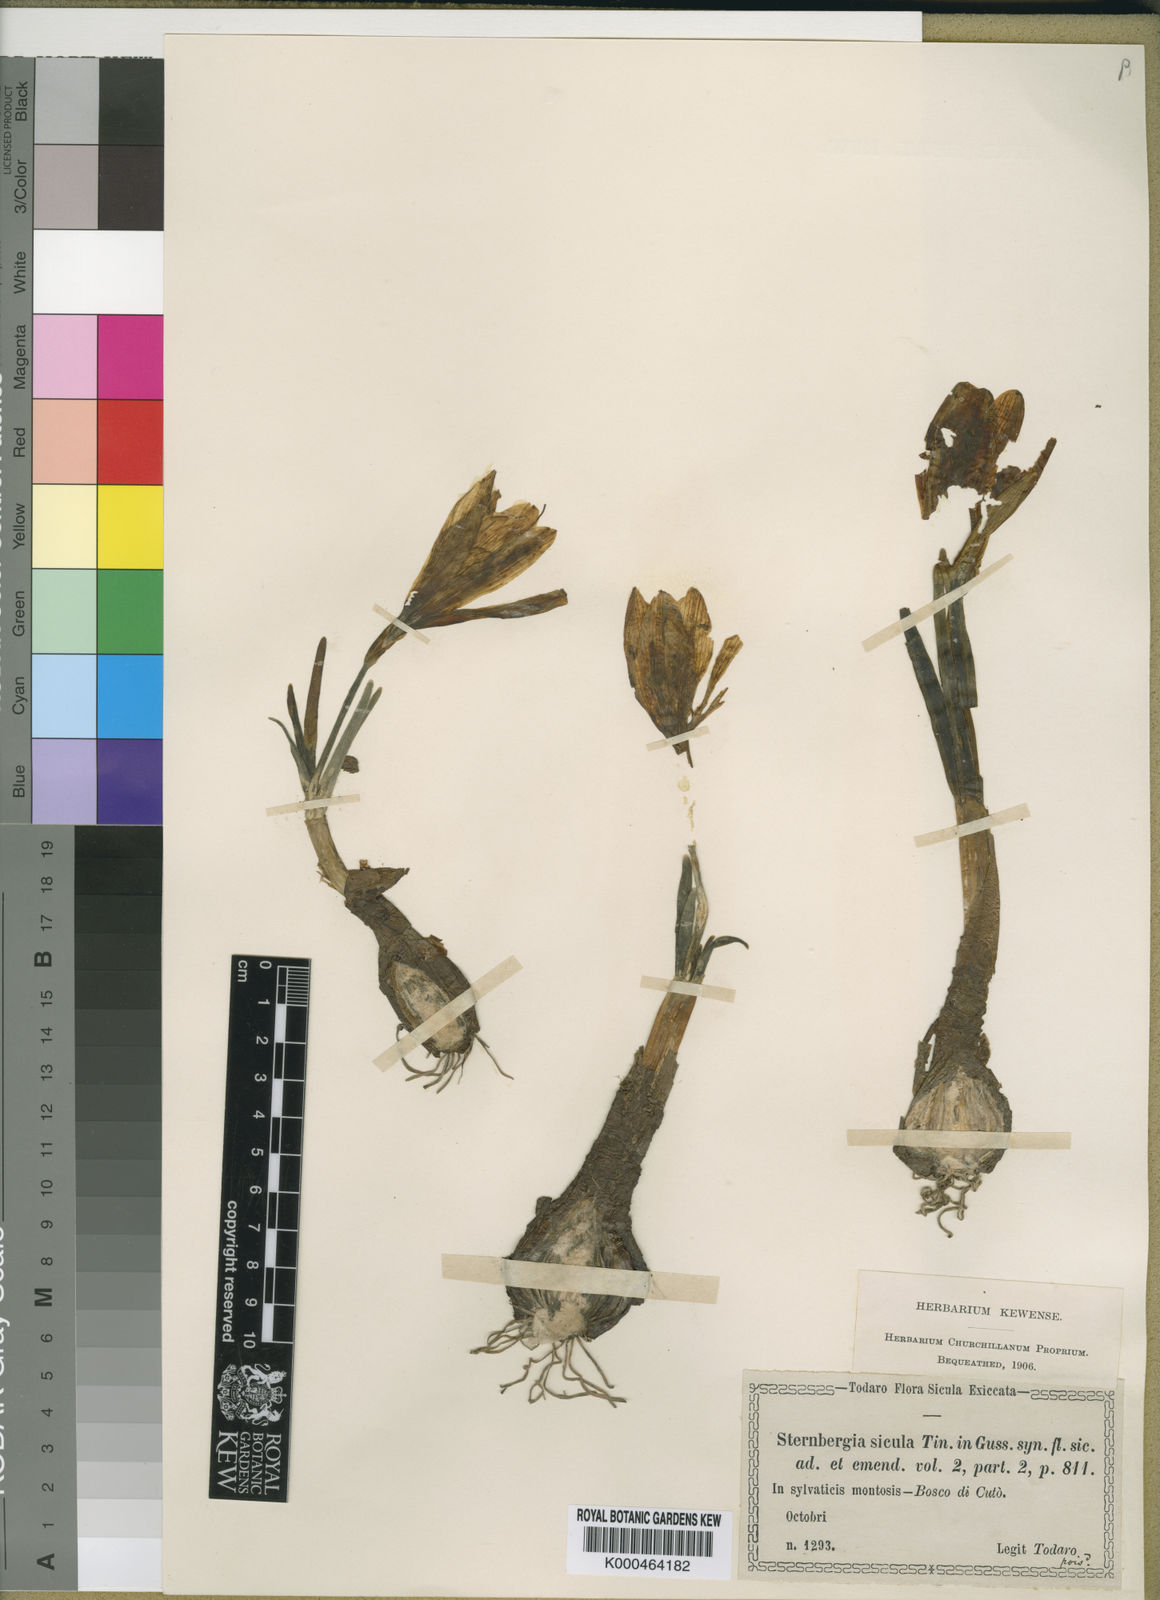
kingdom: Plantae
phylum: Tracheophyta
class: Liliopsida
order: Asparagales
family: Amaryllidaceae
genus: Sternbergia
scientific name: Sternbergia
